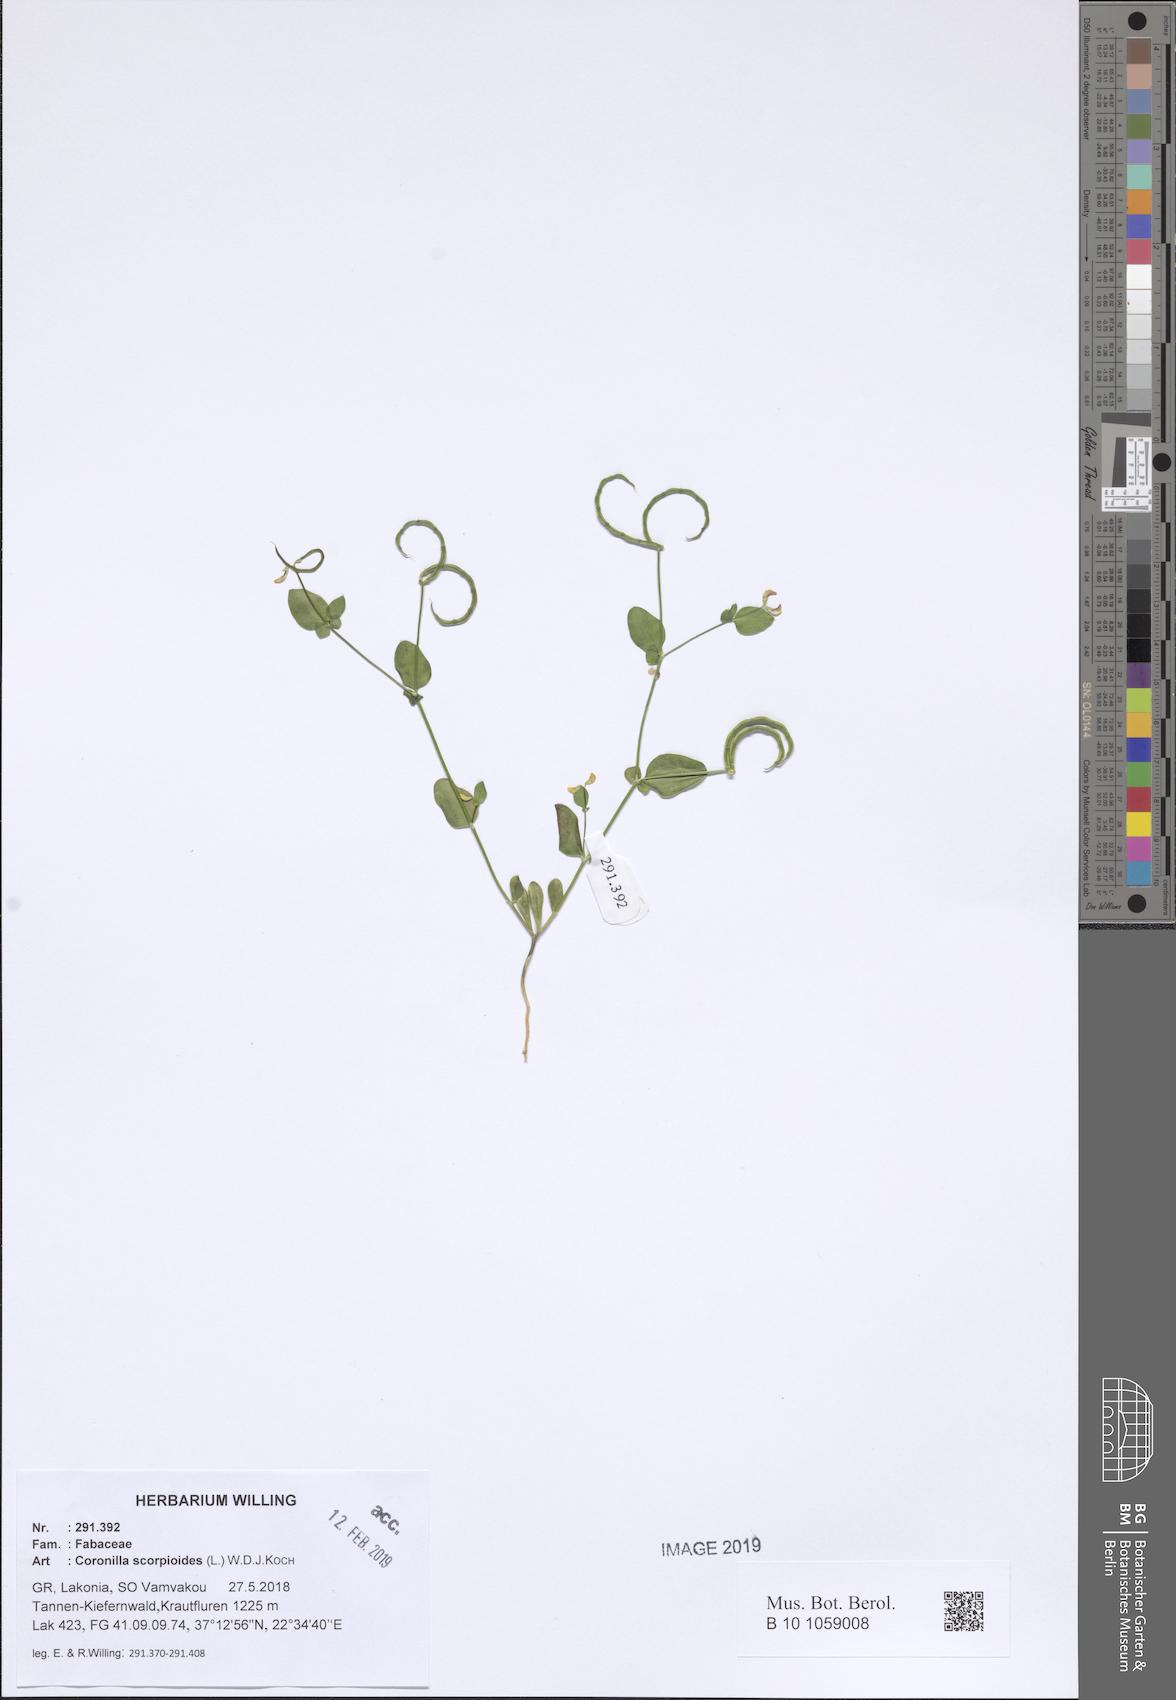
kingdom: Plantae
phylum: Tracheophyta
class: Magnoliopsida
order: Fabales
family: Fabaceae
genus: Coronilla
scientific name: Coronilla scorpioides
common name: Annual scorpion-vetch
